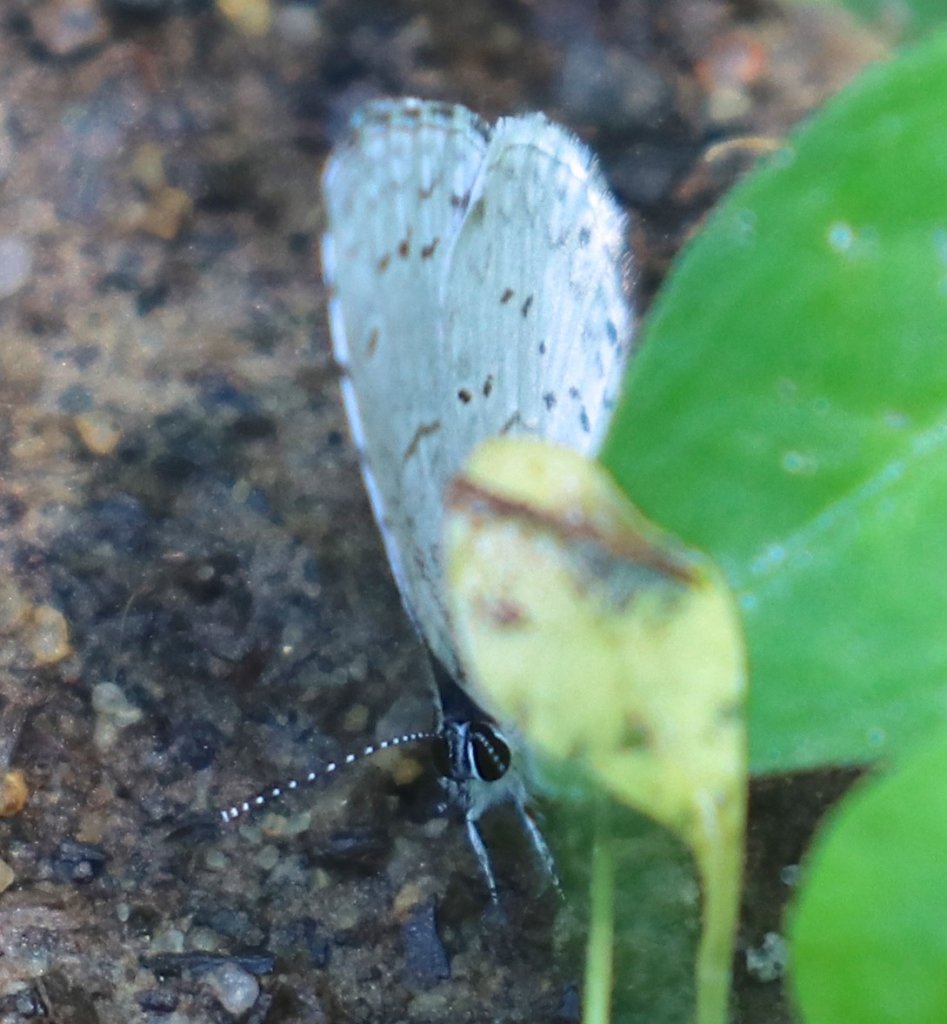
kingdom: Animalia
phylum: Arthropoda
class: Insecta
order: Lepidoptera
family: Lycaenidae
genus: Cyaniris
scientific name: Cyaniris neglecta
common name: Summer Azure
